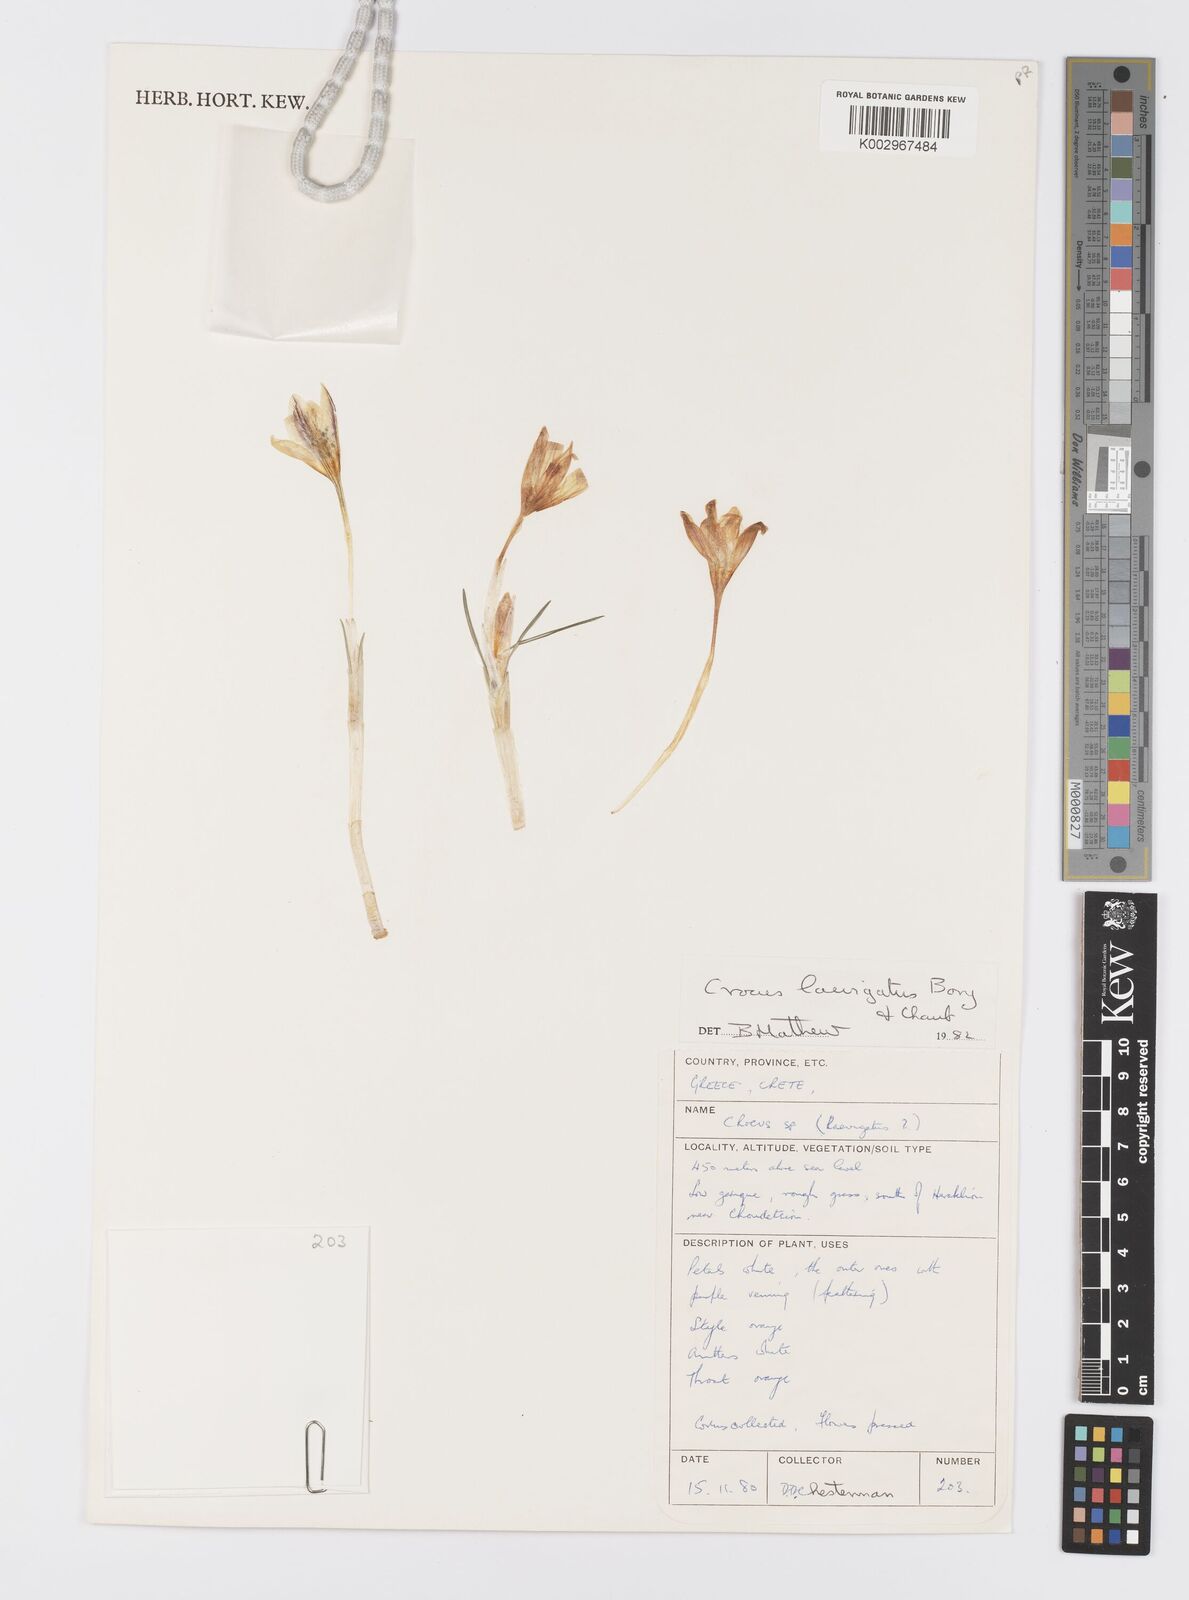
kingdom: Plantae
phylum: Tracheophyta
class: Liliopsida
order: Asparagales
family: Iridaceae
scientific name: Iridaceae
